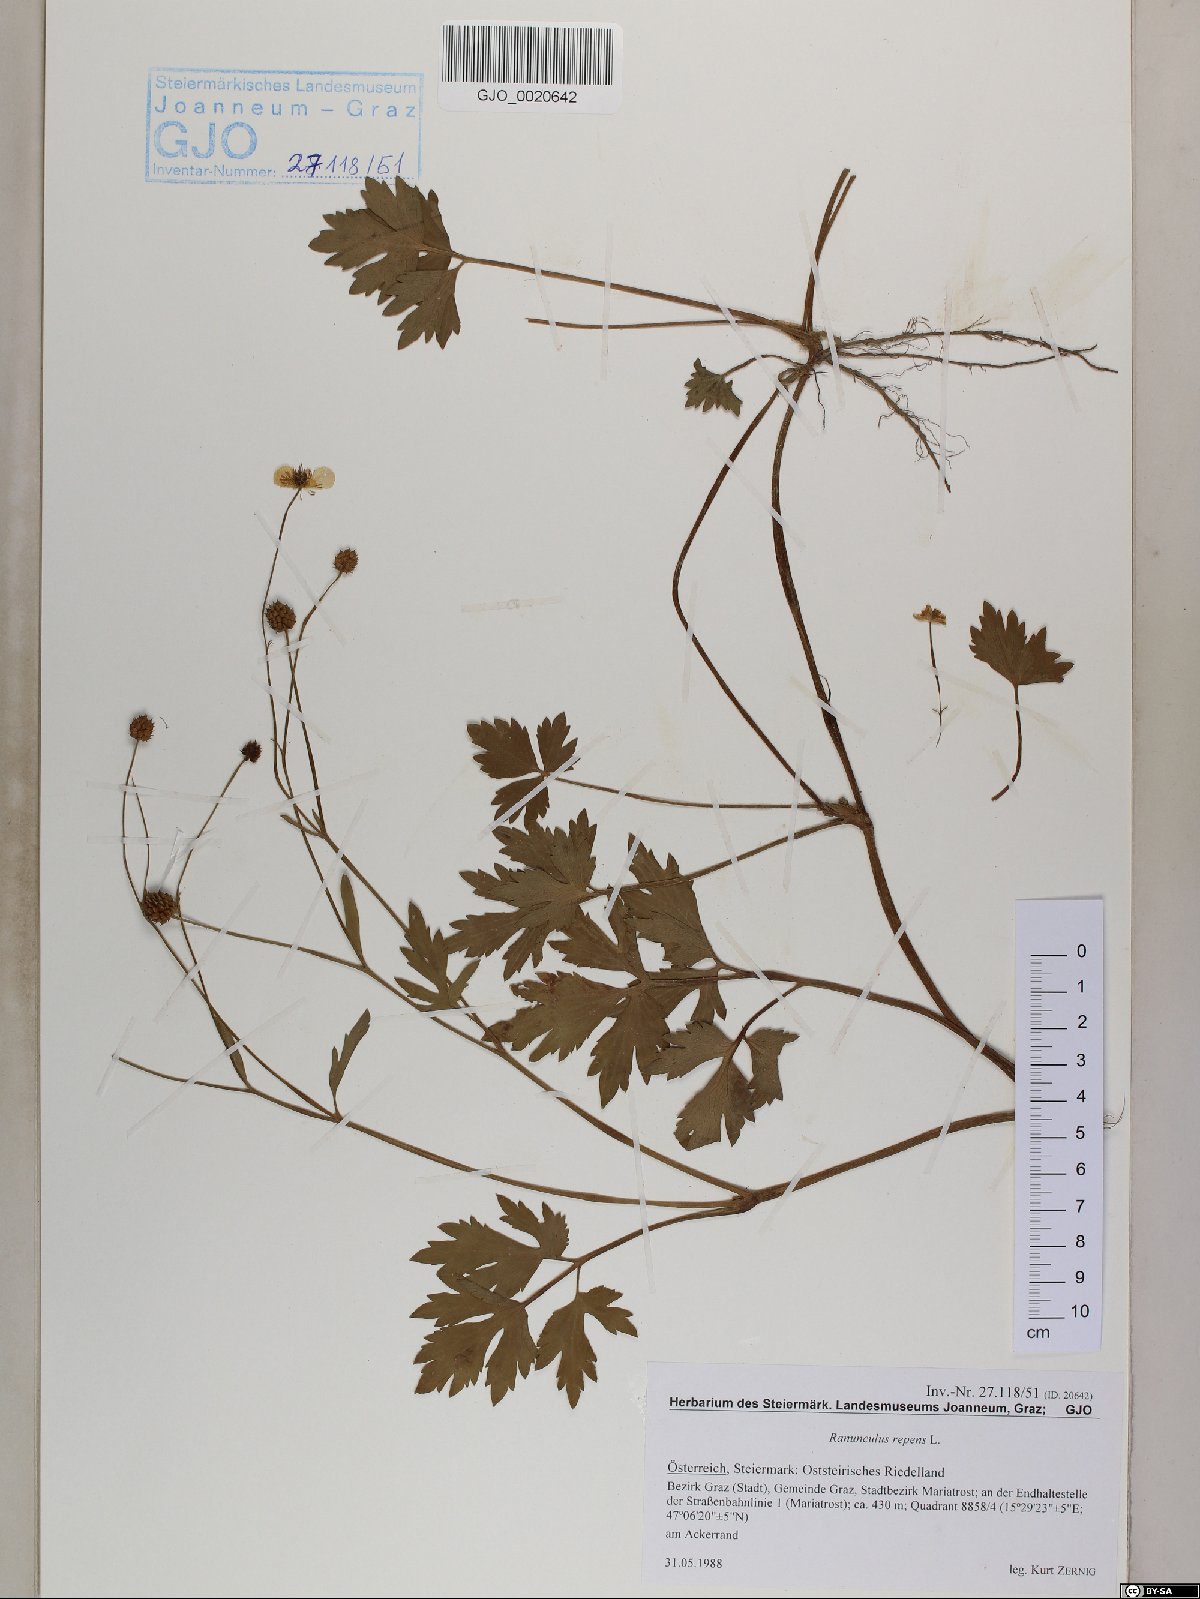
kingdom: Plantae
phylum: Tracheophyta
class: Magnoliopsida
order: Ranunculales
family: Ranunculaceae
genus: Ranunculus
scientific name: Ranunculus repens
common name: Creeping buttercup
